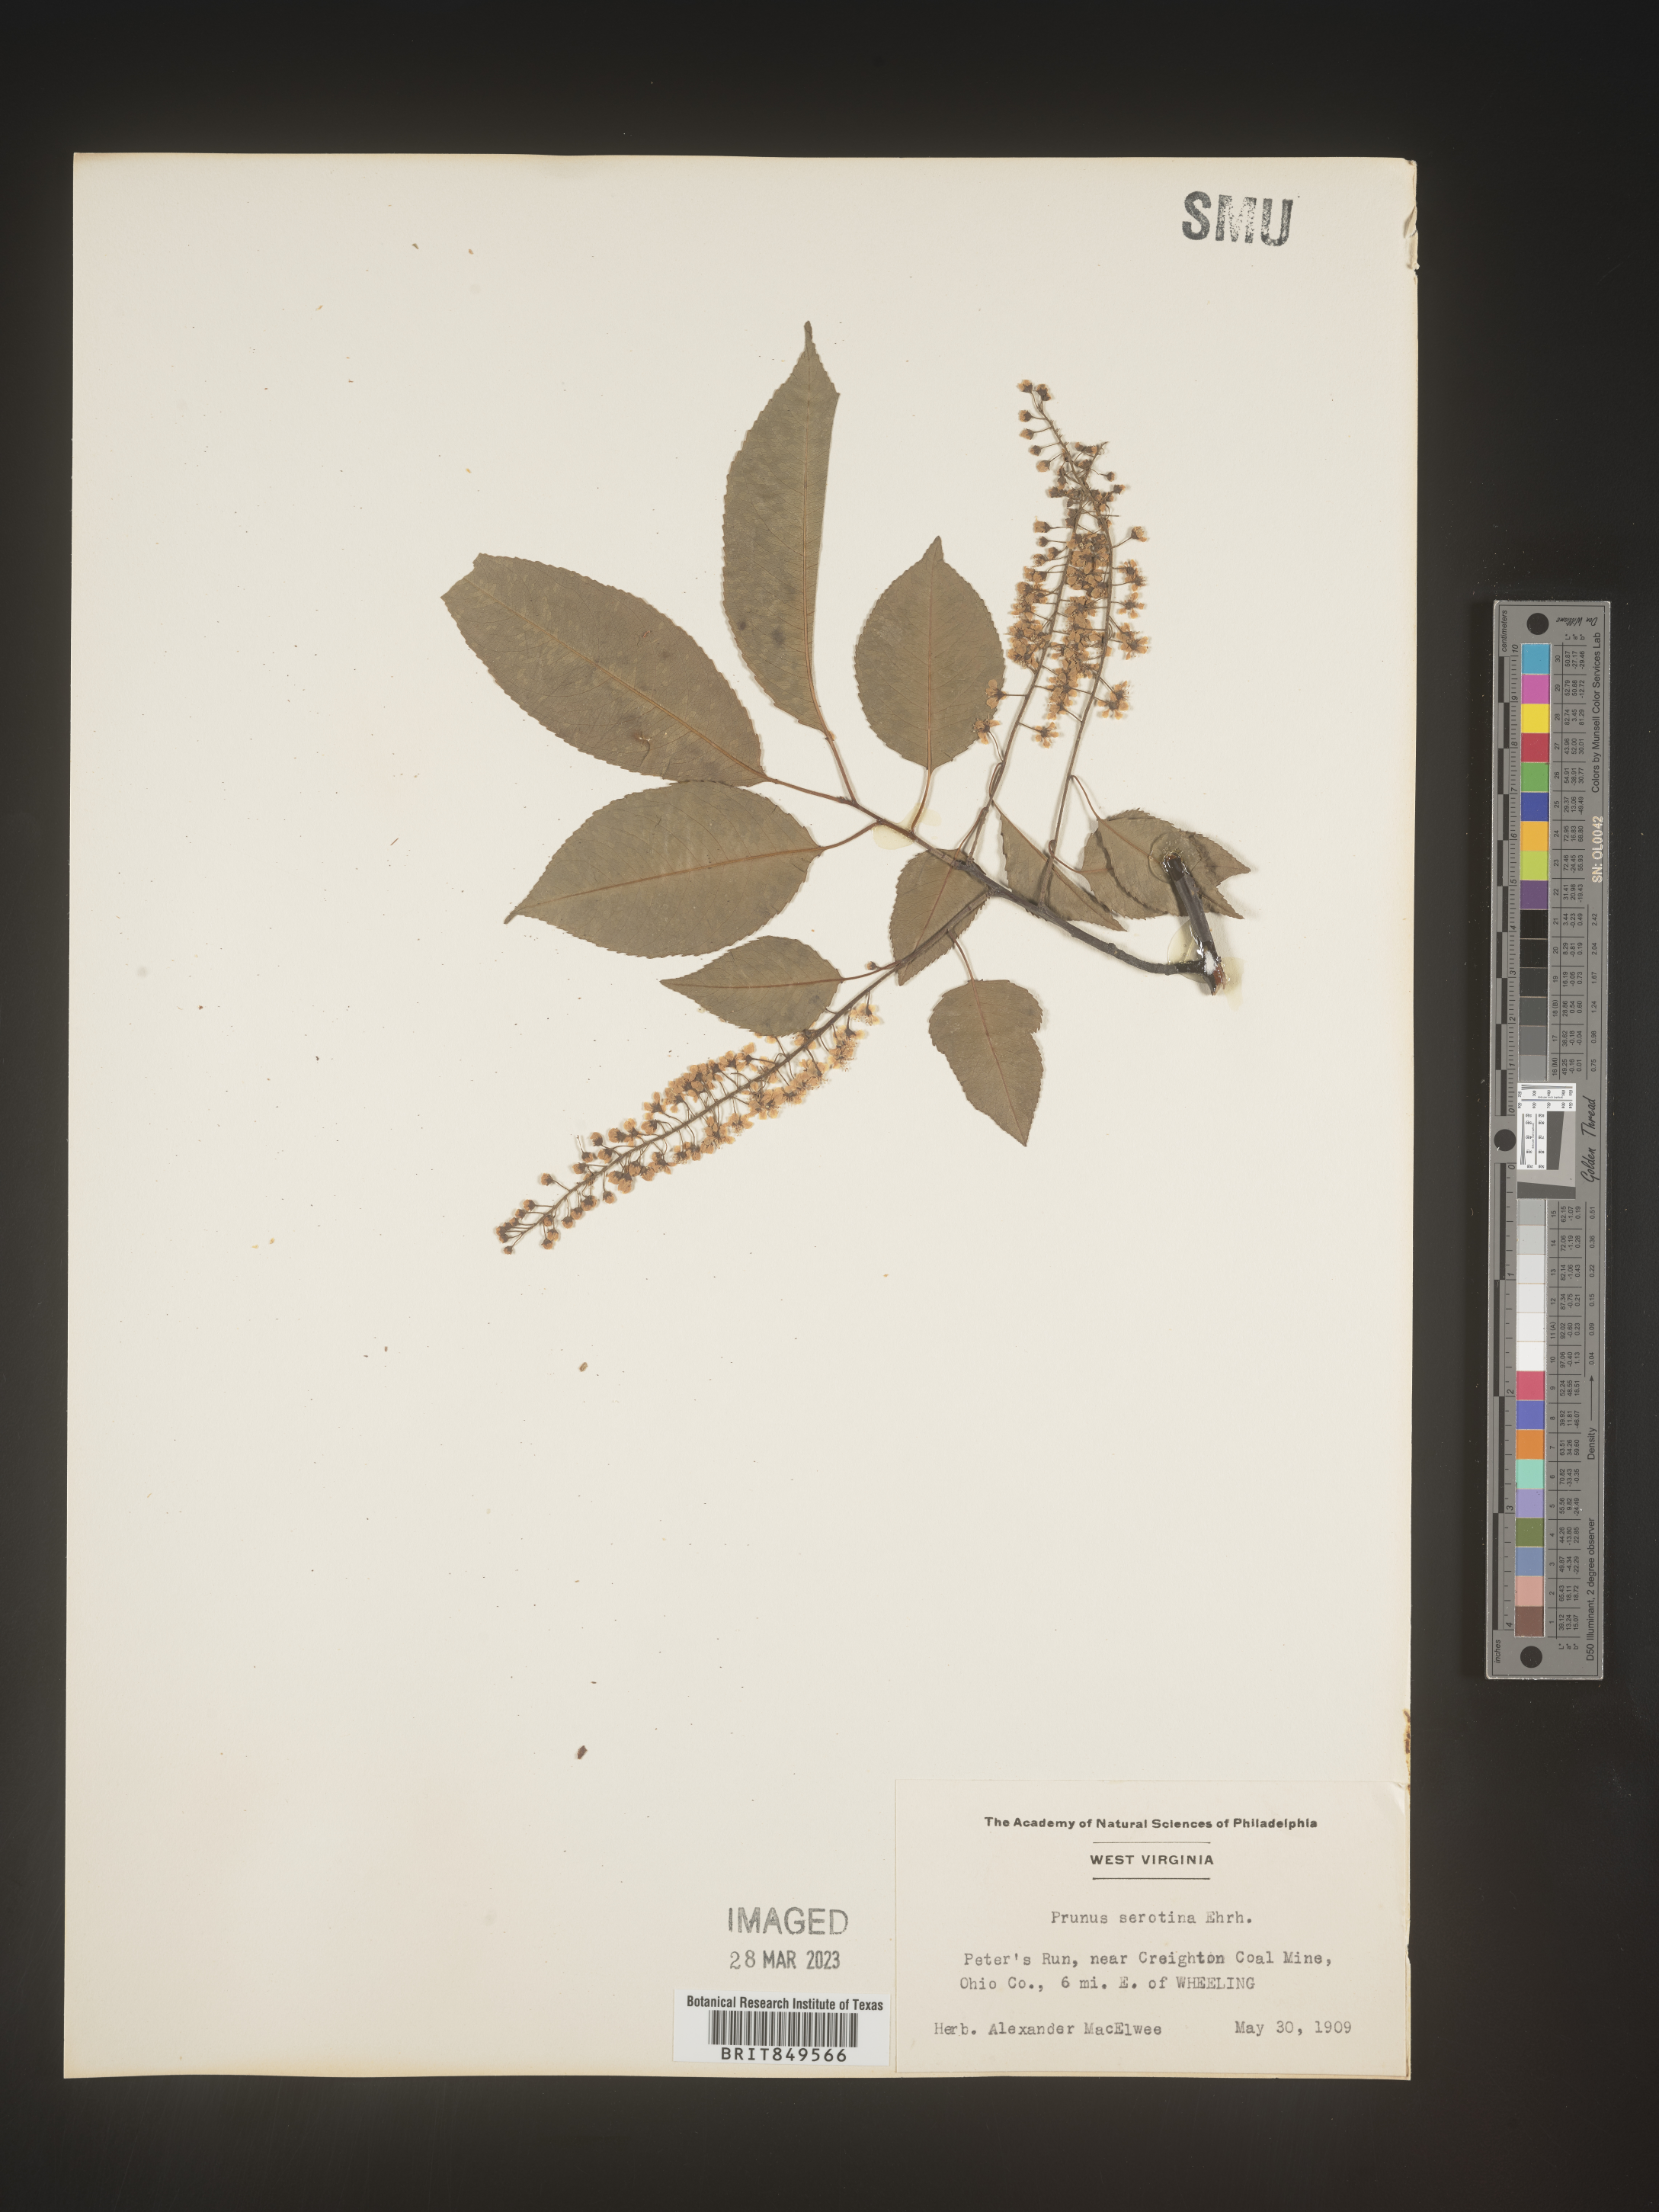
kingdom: Plantae
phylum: Tracheophyta
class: Magnoliopsida
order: Rosales
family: Rosaceae
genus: Prunus
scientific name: Prunus serotina
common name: Black cherry
